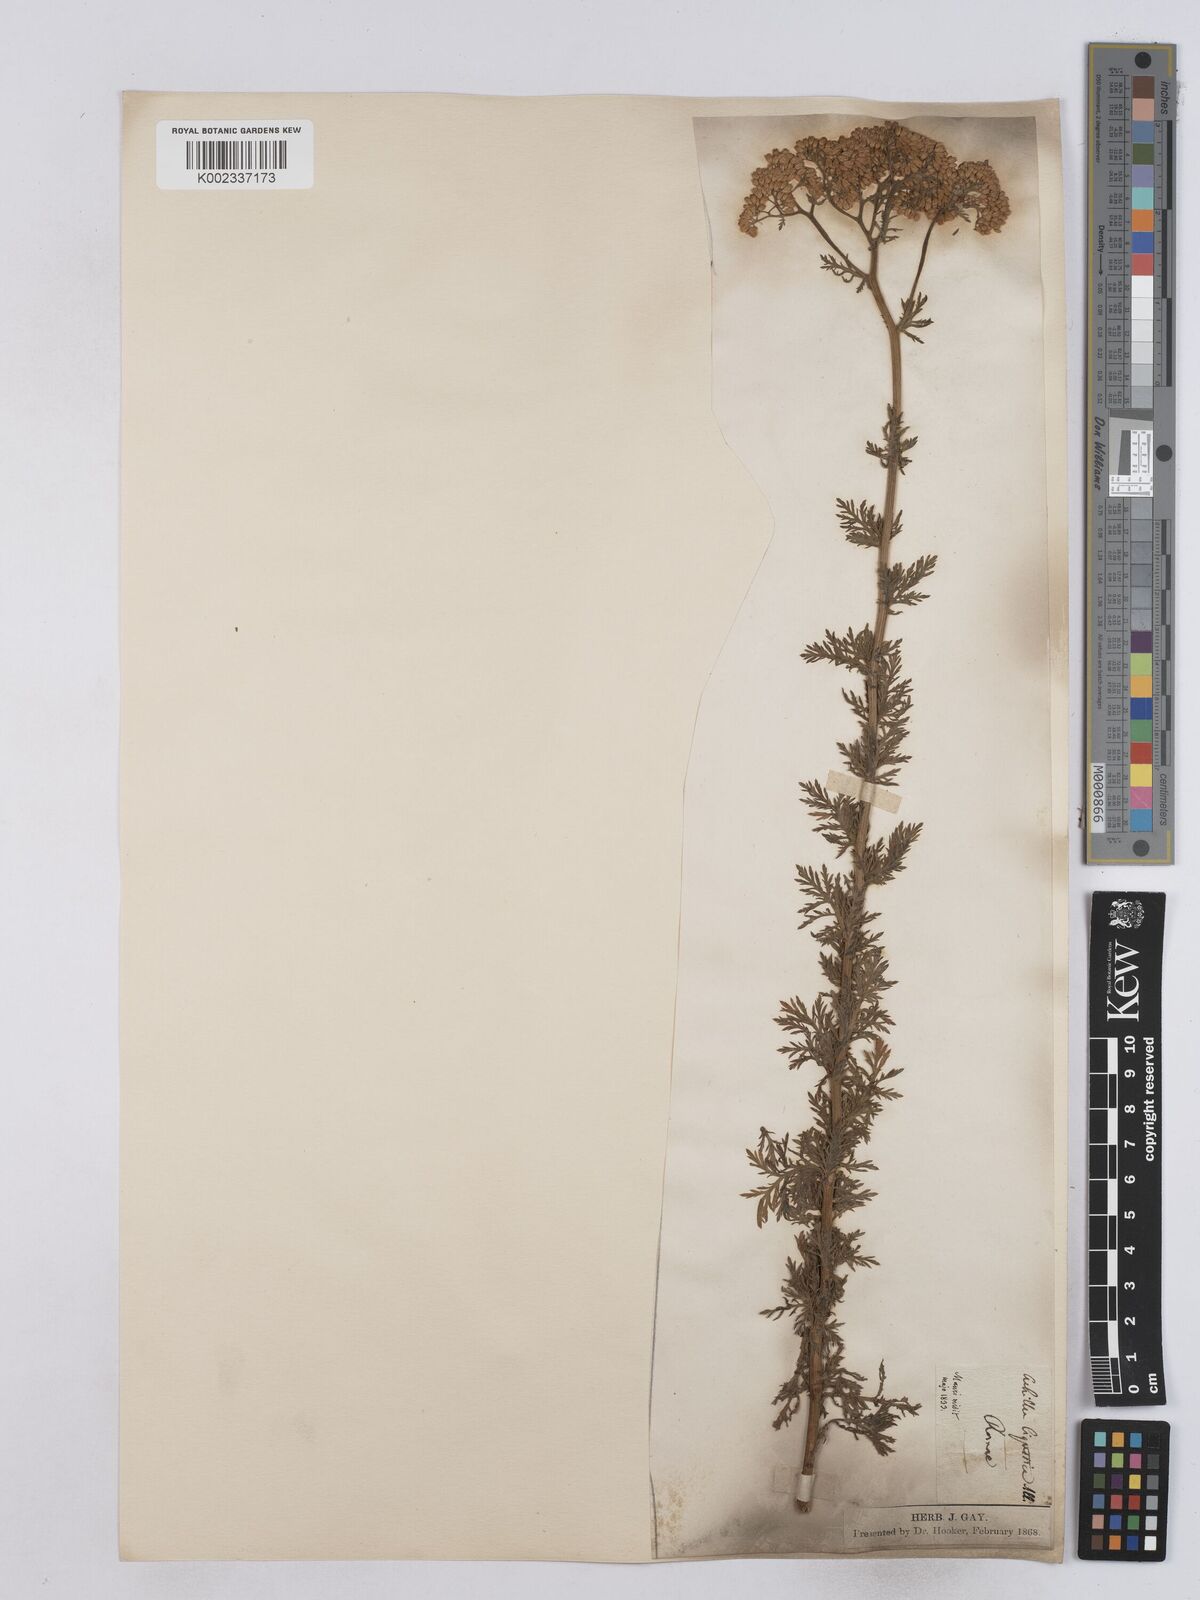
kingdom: Plantae
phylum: Tracheophyta
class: Magnoliopsida
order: Asterales
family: Asteraceae
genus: Achillea
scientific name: Achillea ligustica
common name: Southern yarrow
